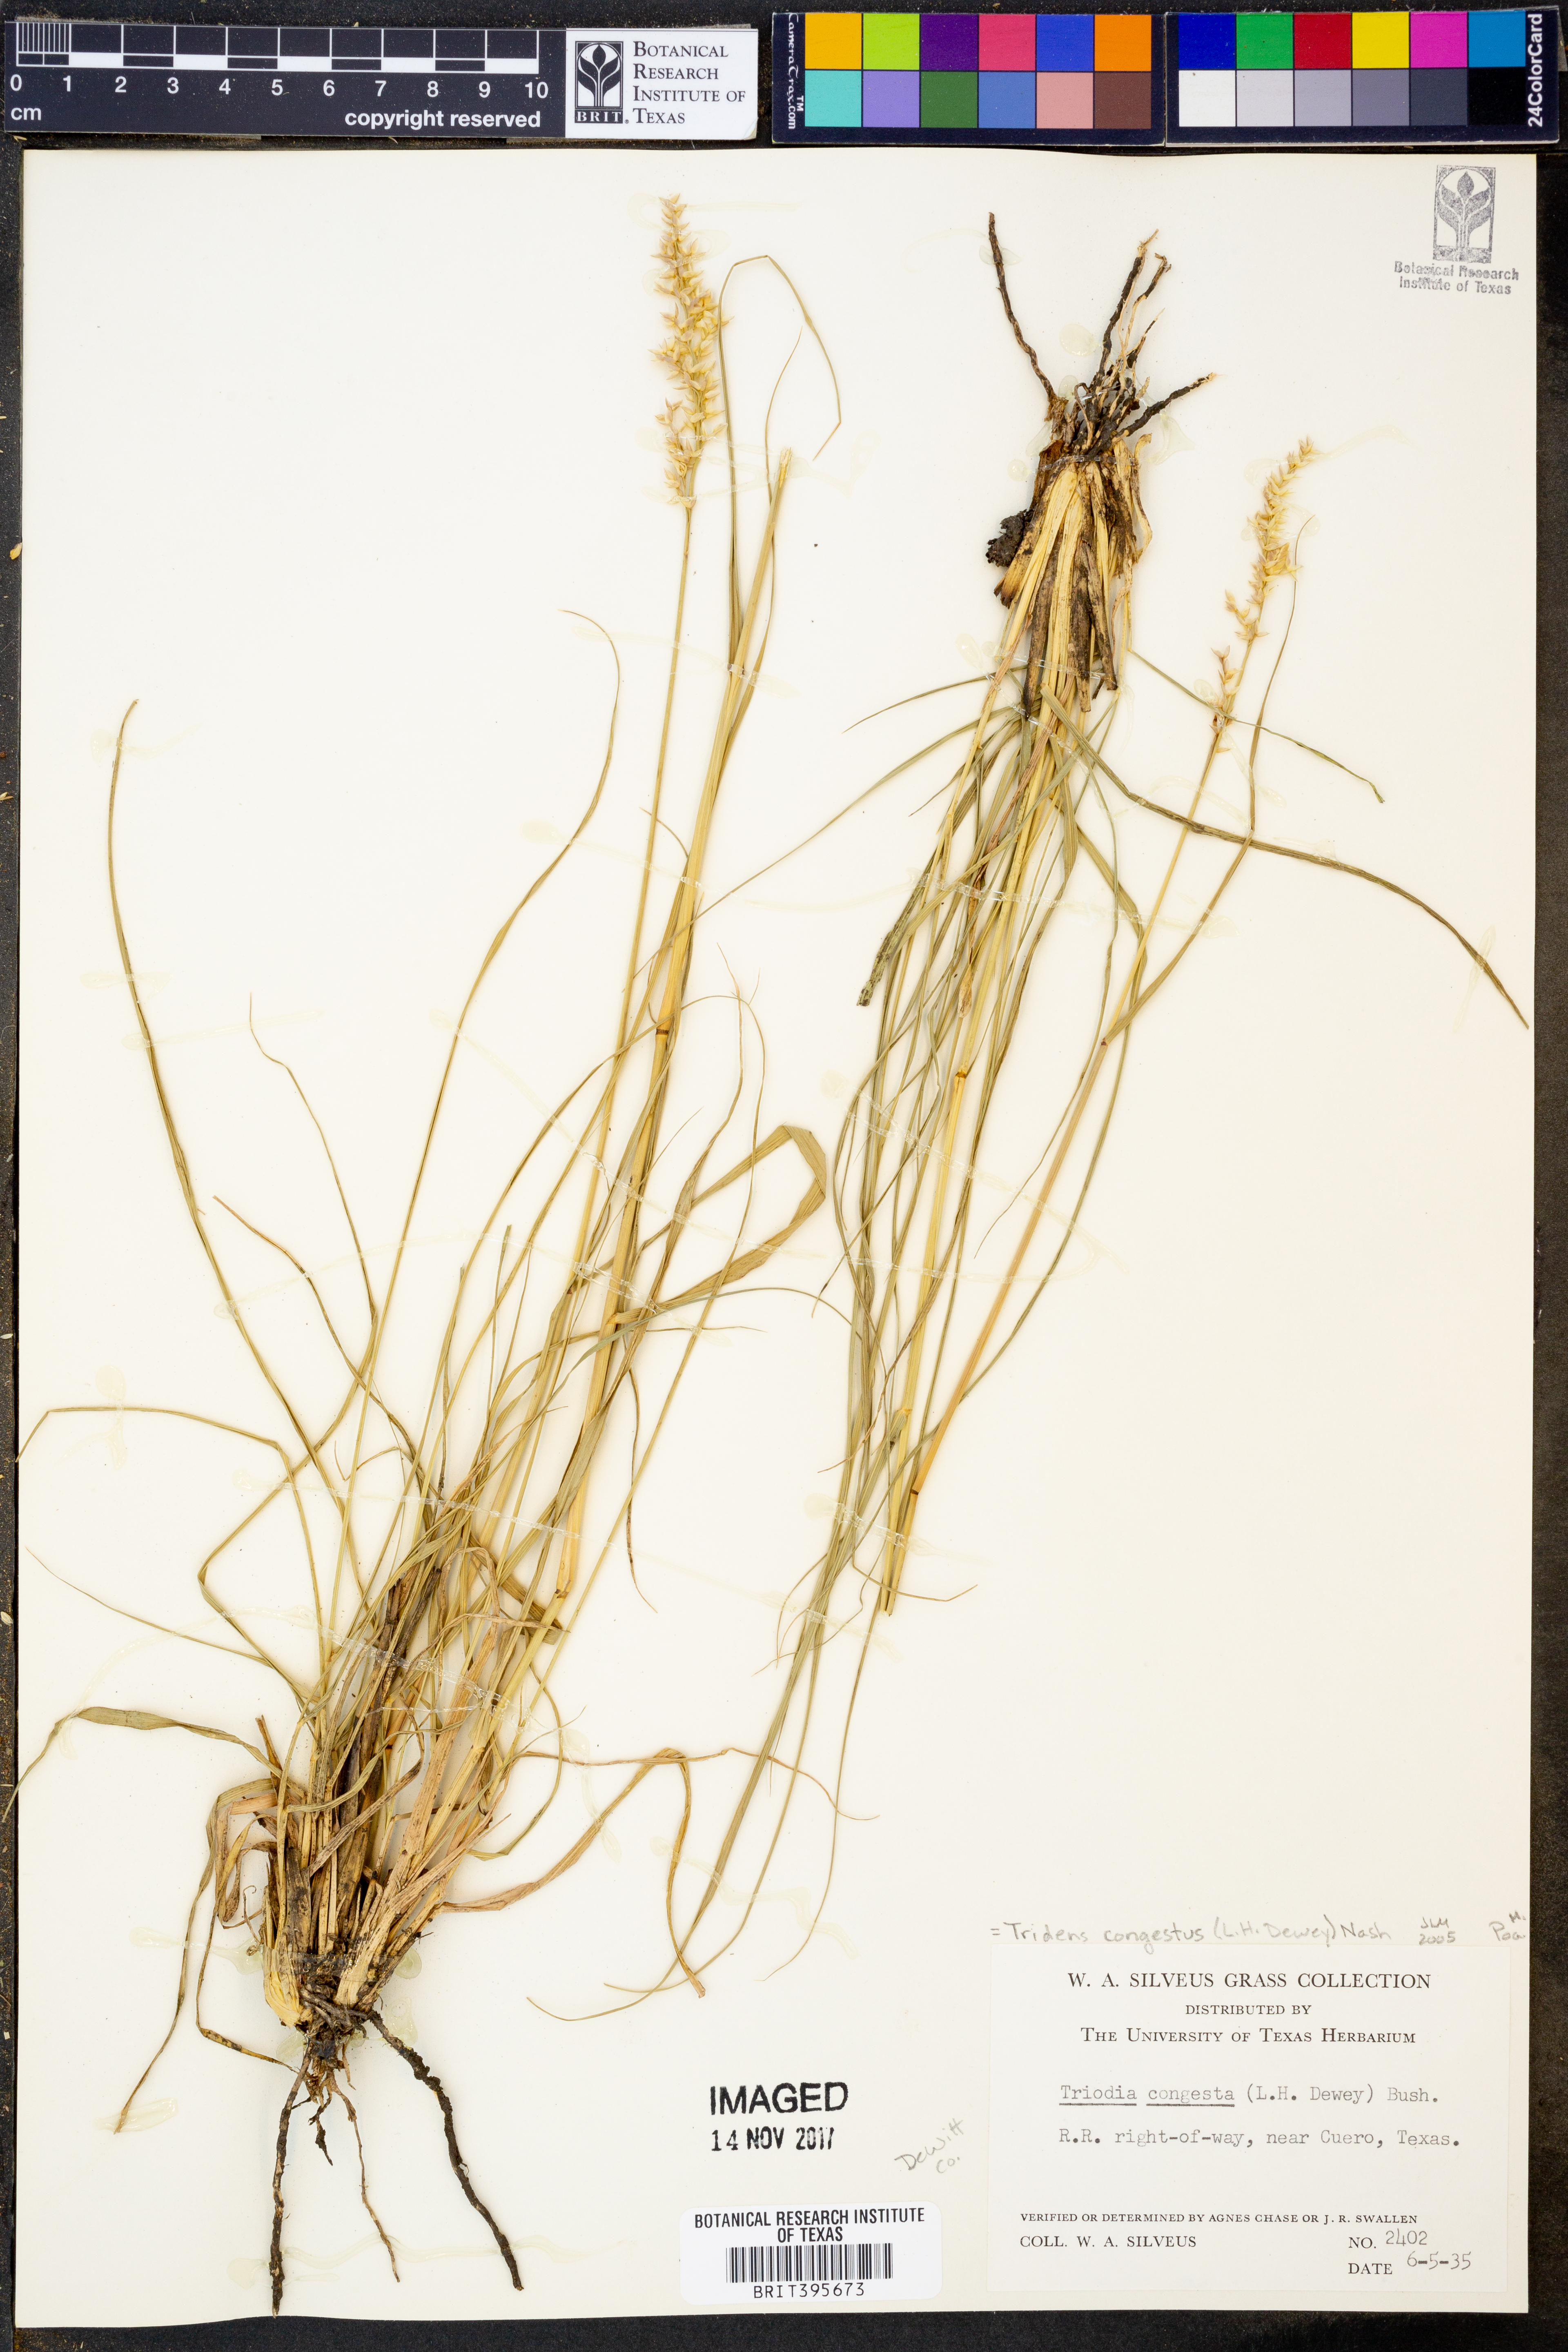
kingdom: Plantae
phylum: Tracheophyta
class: Liliopsida
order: Poales
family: Poaceae
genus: Tridens
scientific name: Tridens congestus
